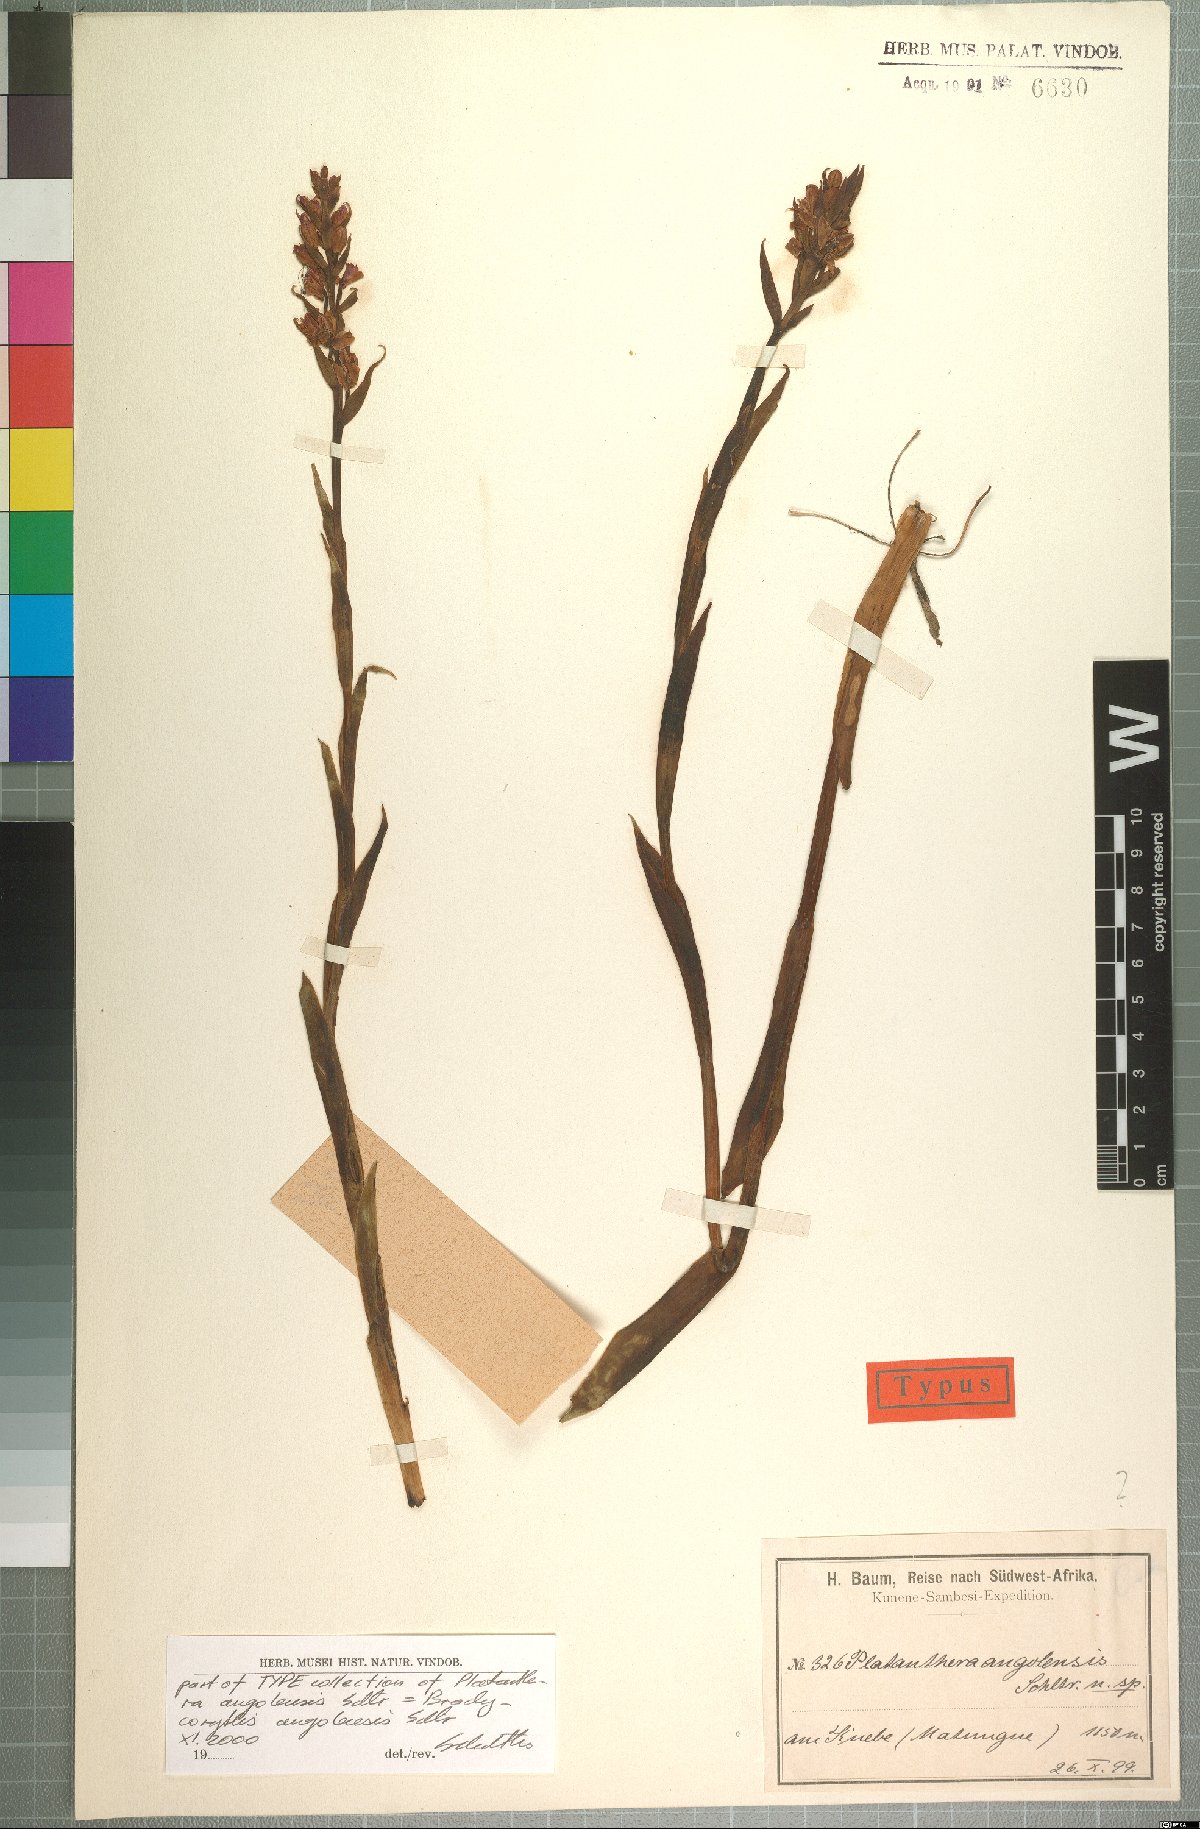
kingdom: Plantae
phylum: Tracheophyta
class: Liliopsida
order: Asparagales
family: Orchidaceae
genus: Brachycorythis
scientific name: Brachycorythis angolensis
